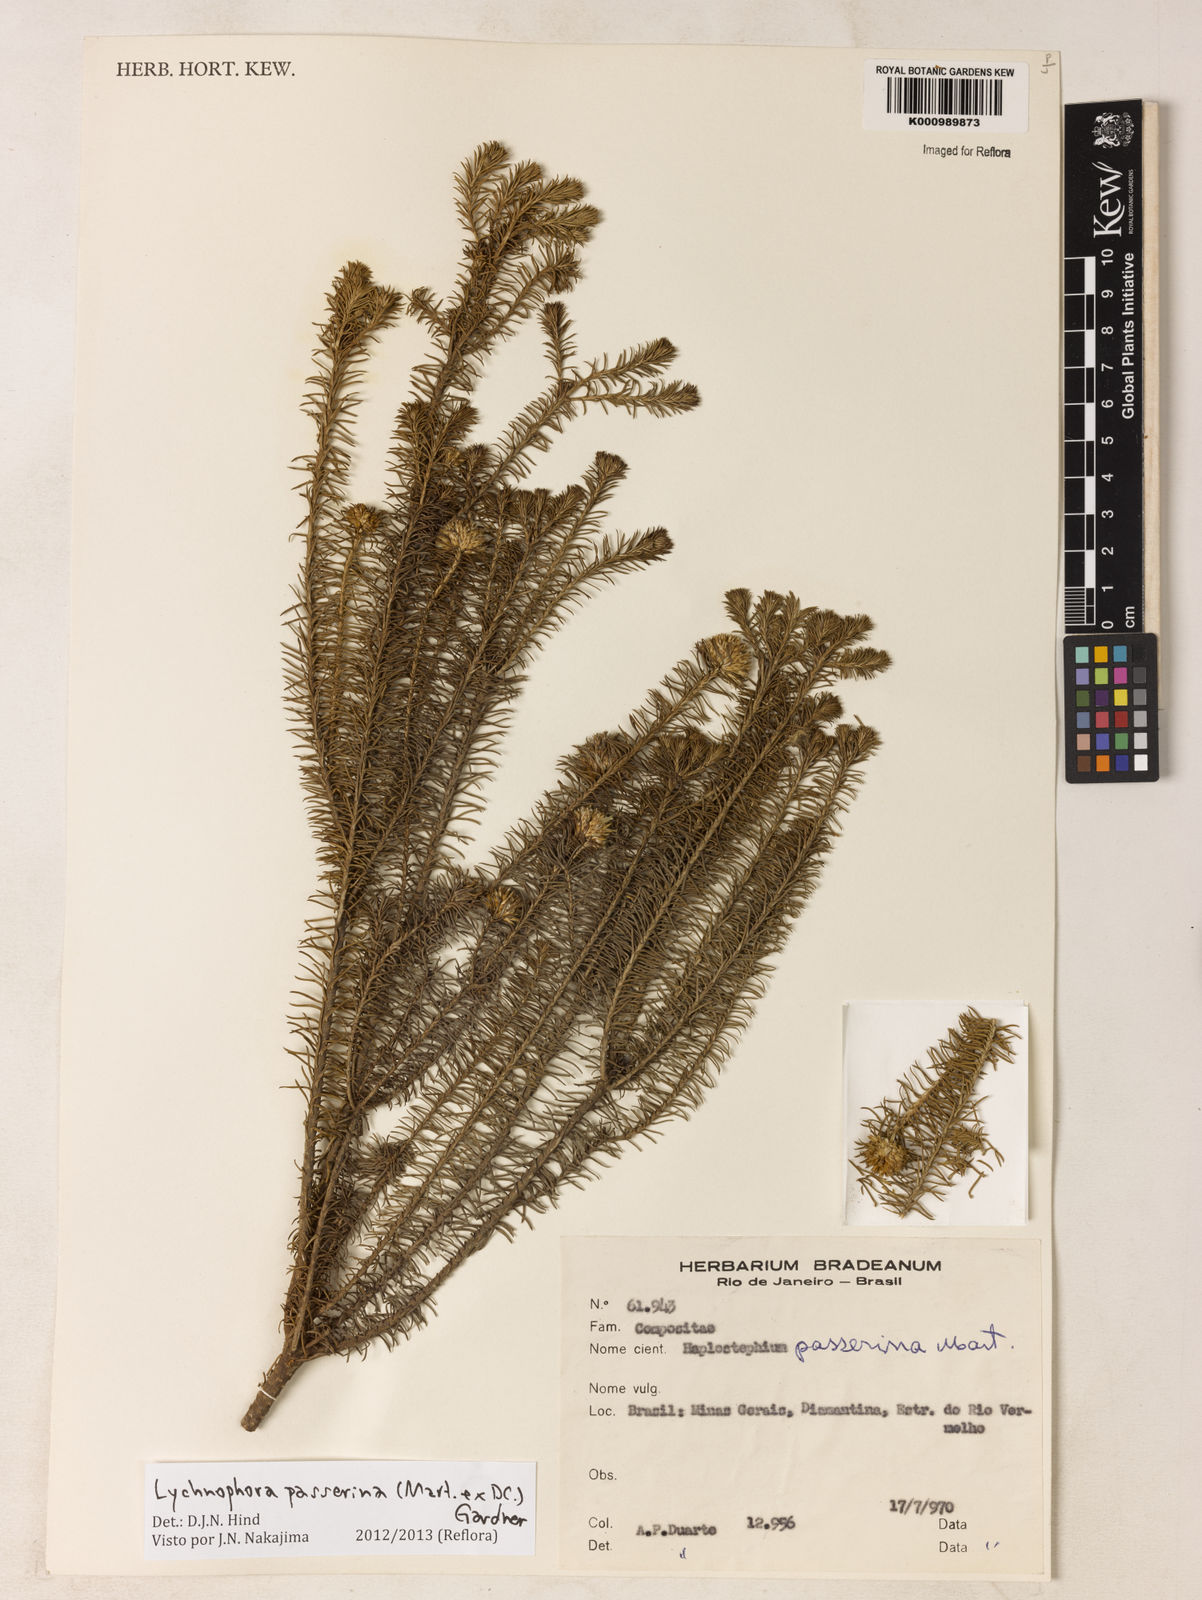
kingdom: Plantae
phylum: Tracheophyta
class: Magnoliopsida
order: Asterales
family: Asteraceae
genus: Lychnophora
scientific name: Lychnophora passerina
